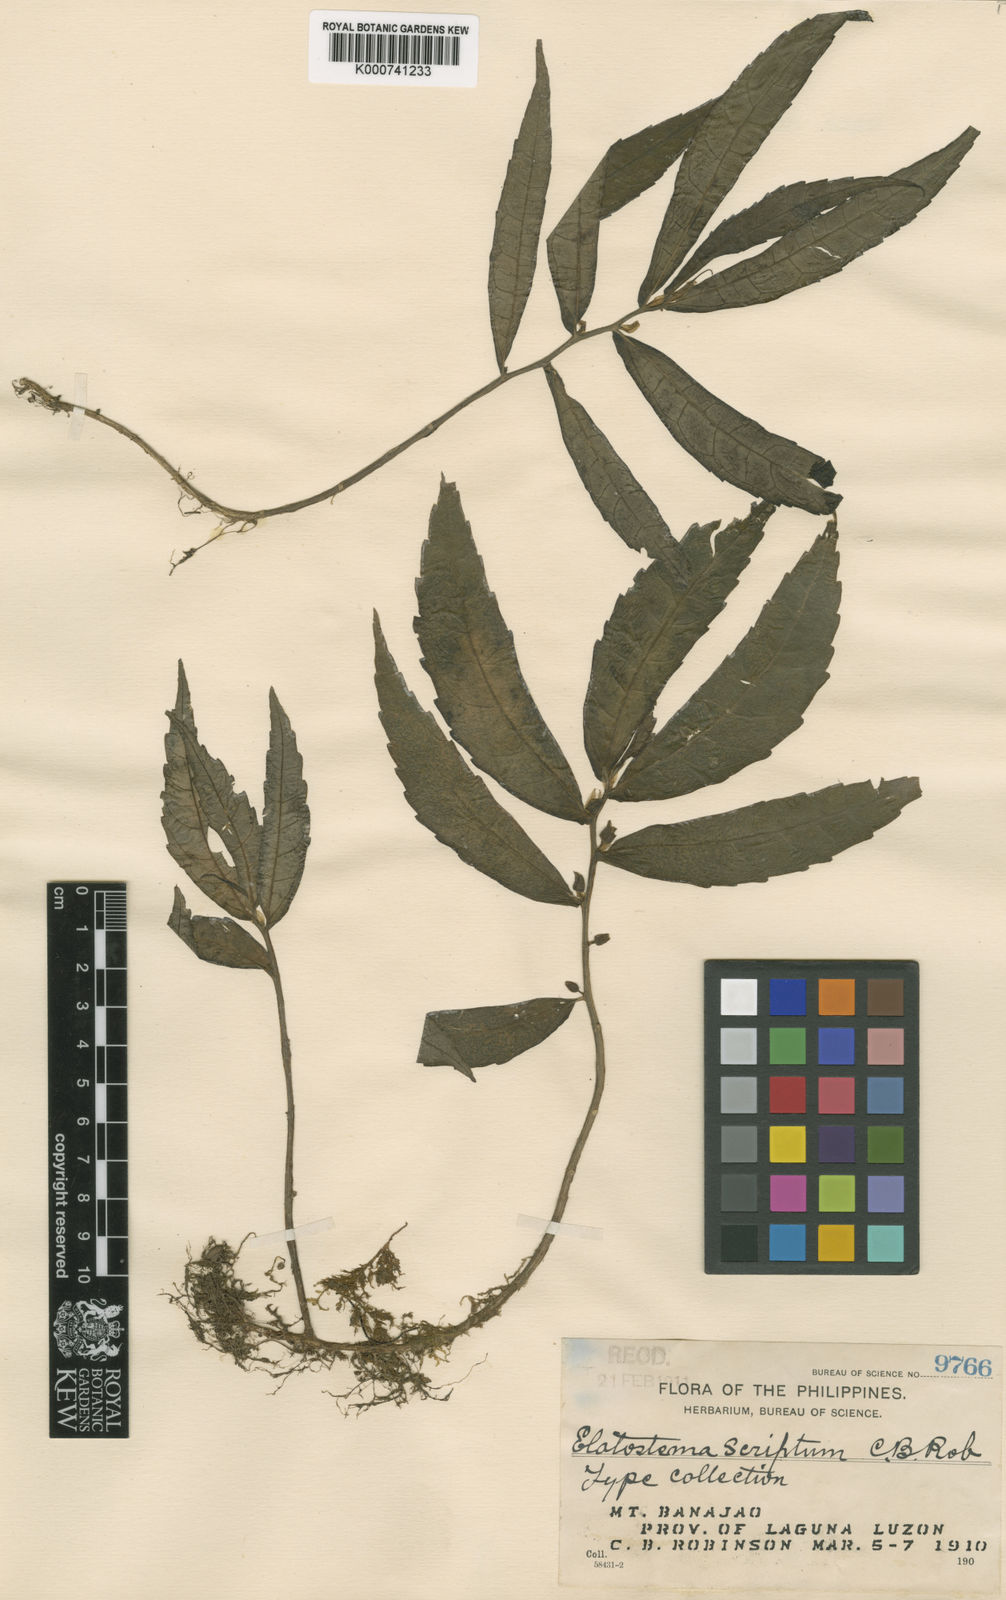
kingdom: Plantae
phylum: Tracheophyta
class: Magnoliopsida
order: Rosales
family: Urticaceae
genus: Elatostema
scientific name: Elatostema banahaense
